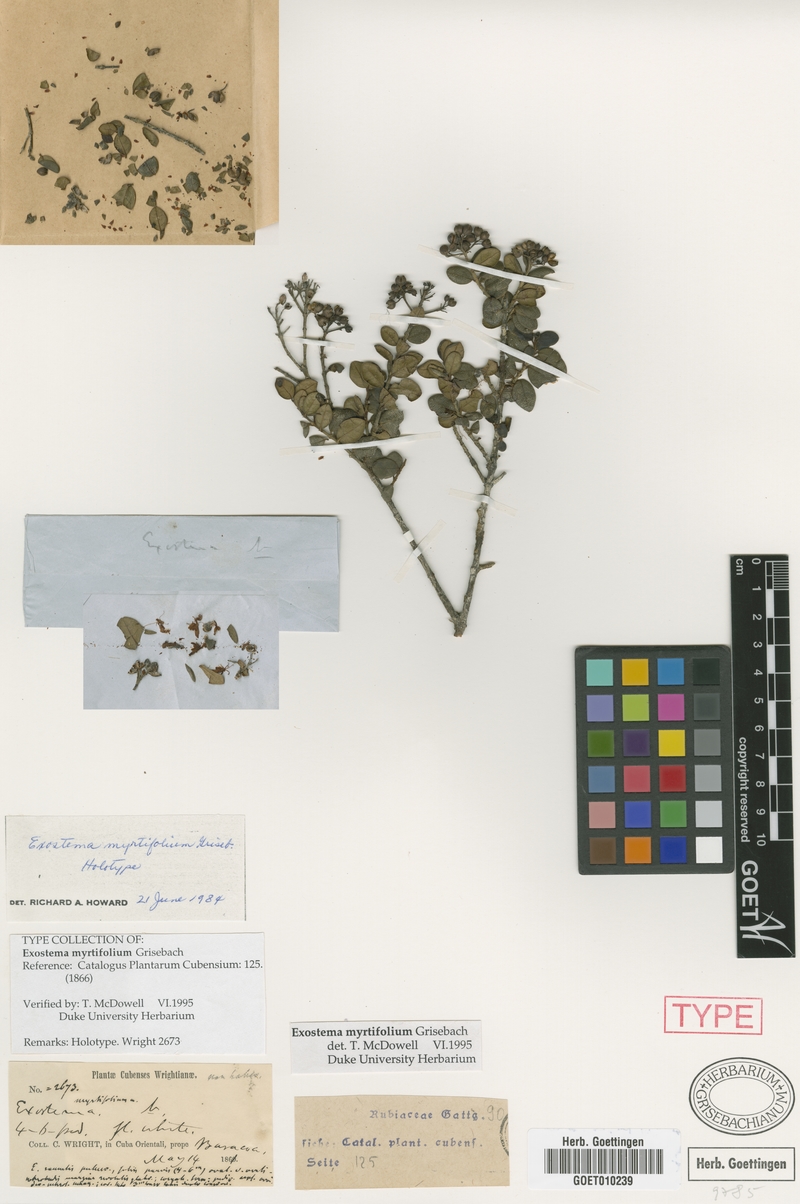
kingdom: Plantae
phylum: Tracheophyta
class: Magnoliopsida
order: Gentianales
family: Rubiaceae
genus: Solenandra
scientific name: Solenandra myrtifolia
